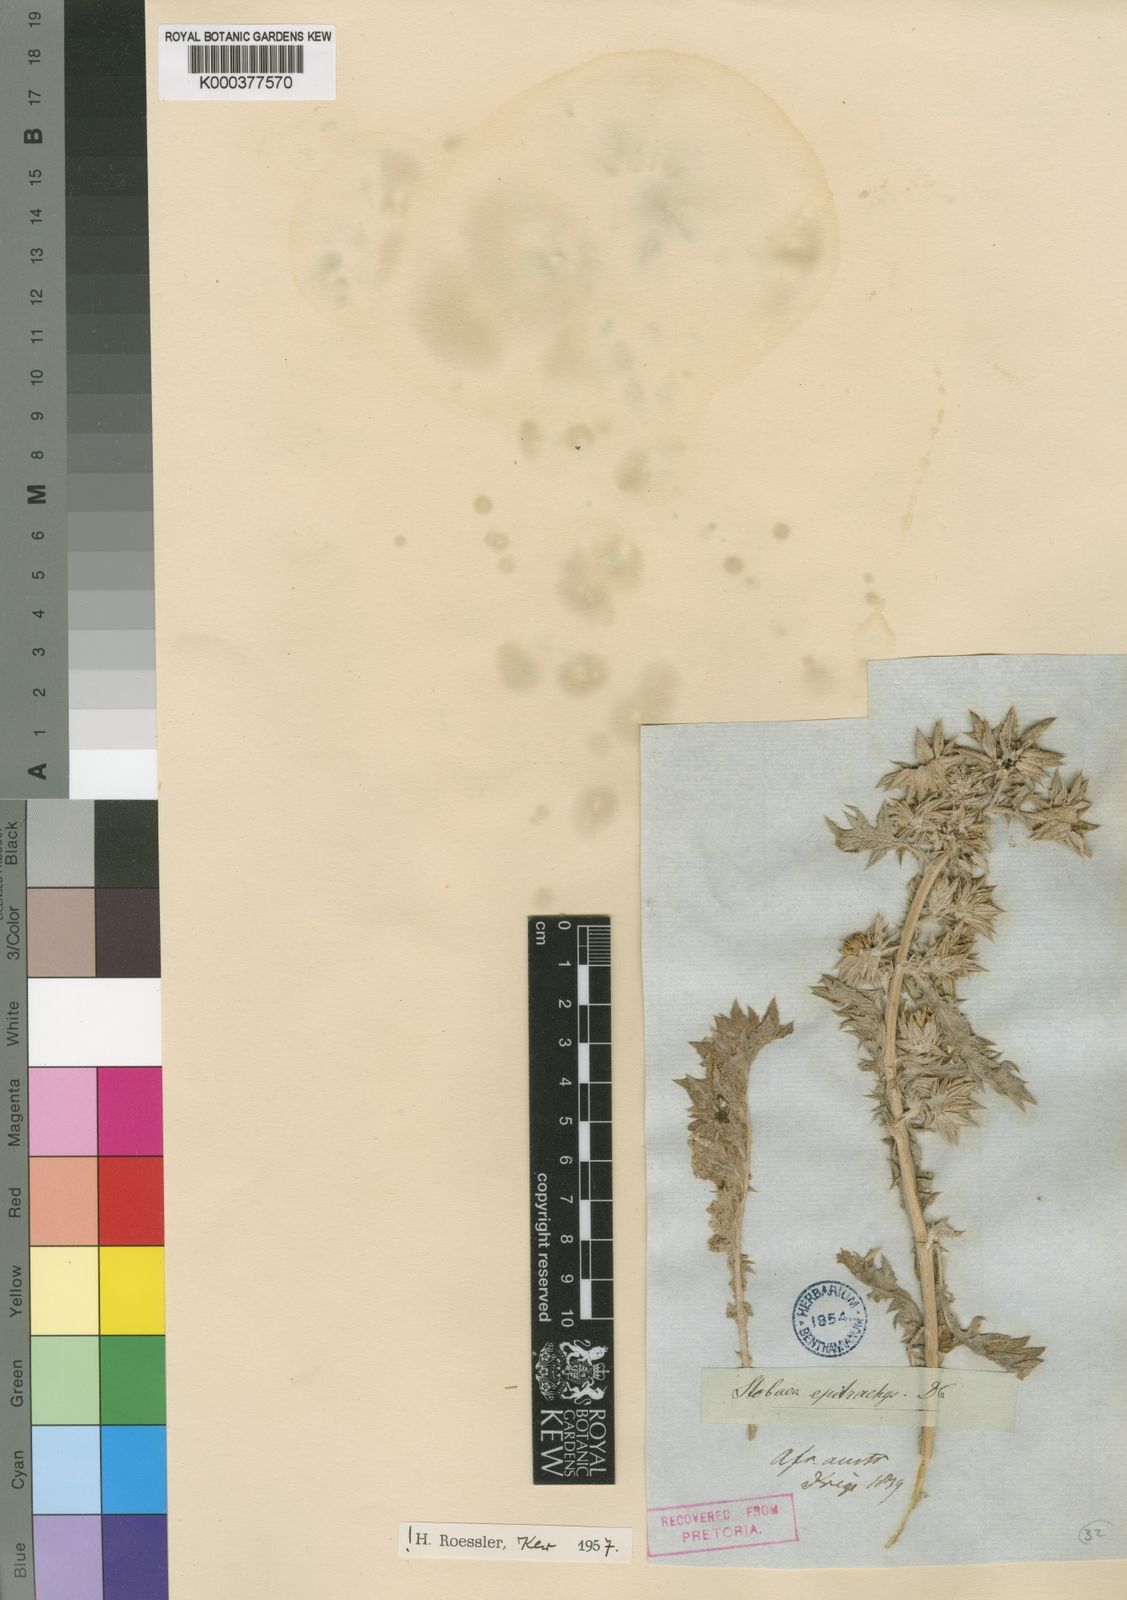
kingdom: Plantae
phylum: Tracheophyta
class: Magnoliopsida
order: Asterales
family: Asteraceae
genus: Berkheya
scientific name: Berkheya pinnatifida
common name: Lobed african thistle
